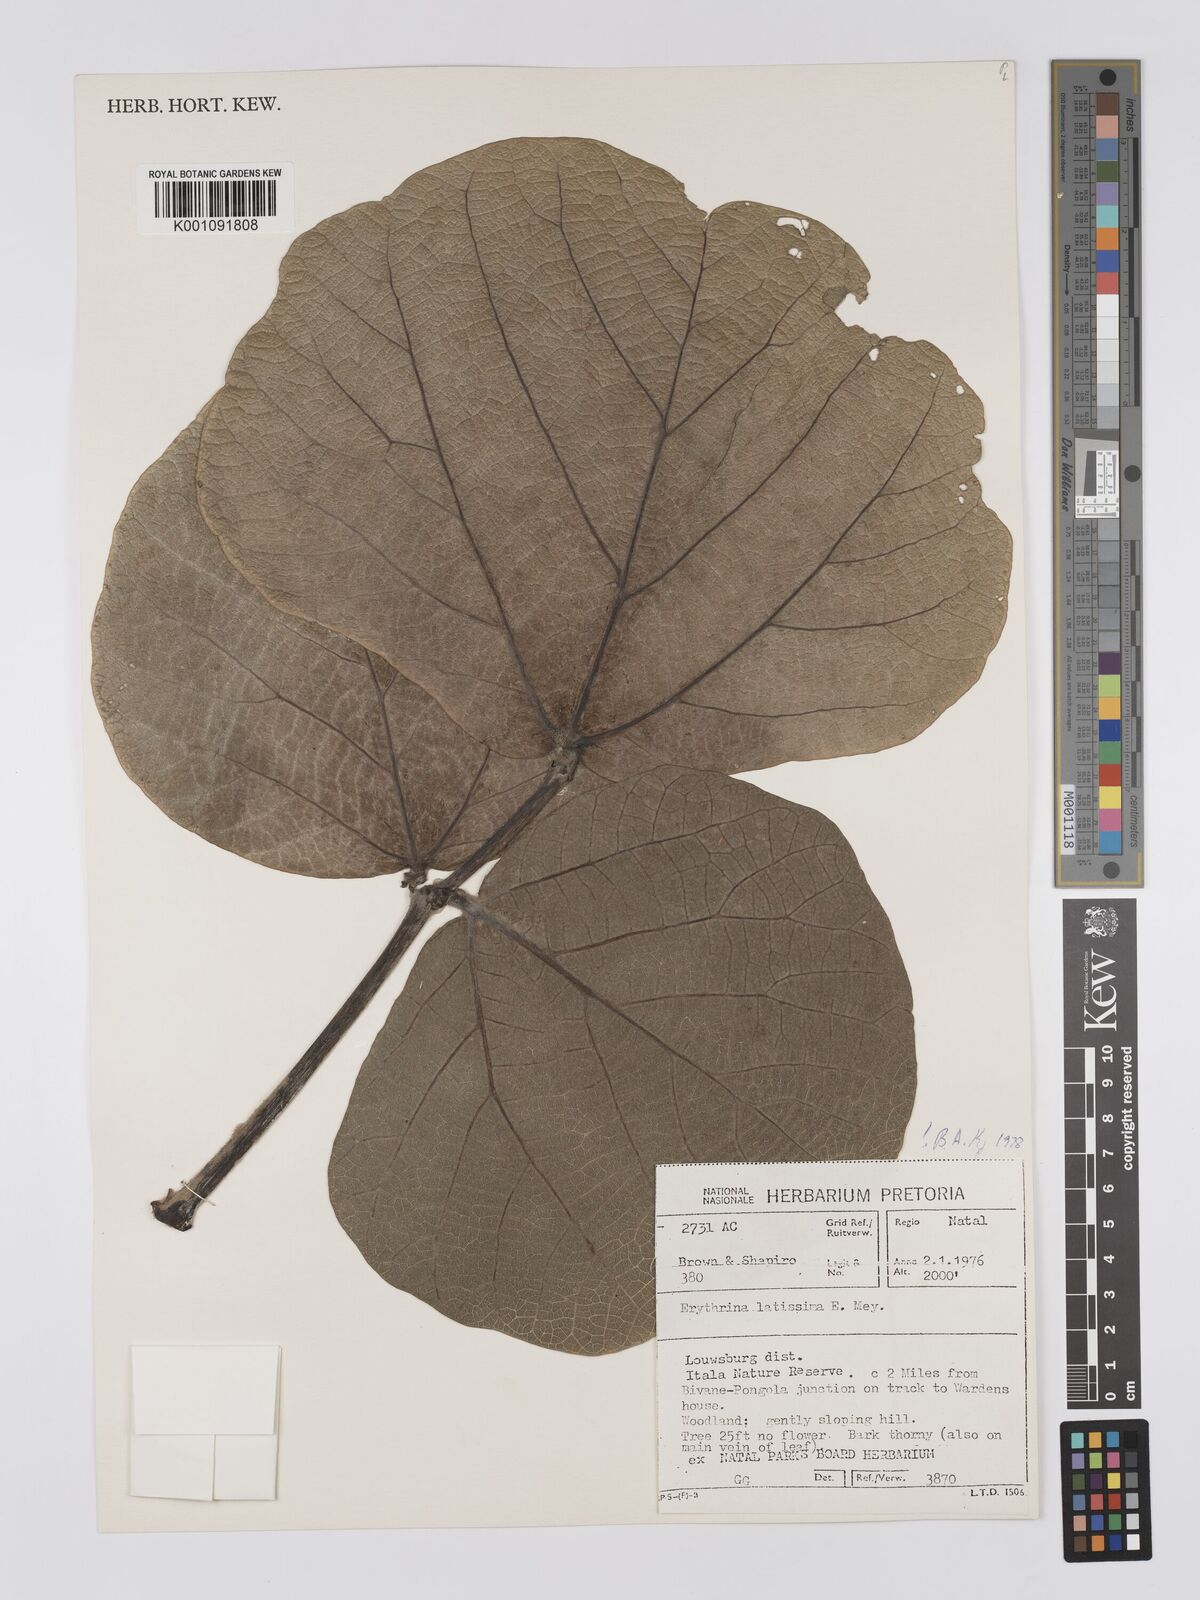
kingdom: Plantae
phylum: Tracheophyta
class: Magnoliopsida
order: Fabales
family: Fabaceae
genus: Erythrina
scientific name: Erythrina latissima
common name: Broad-leaved coral tree
